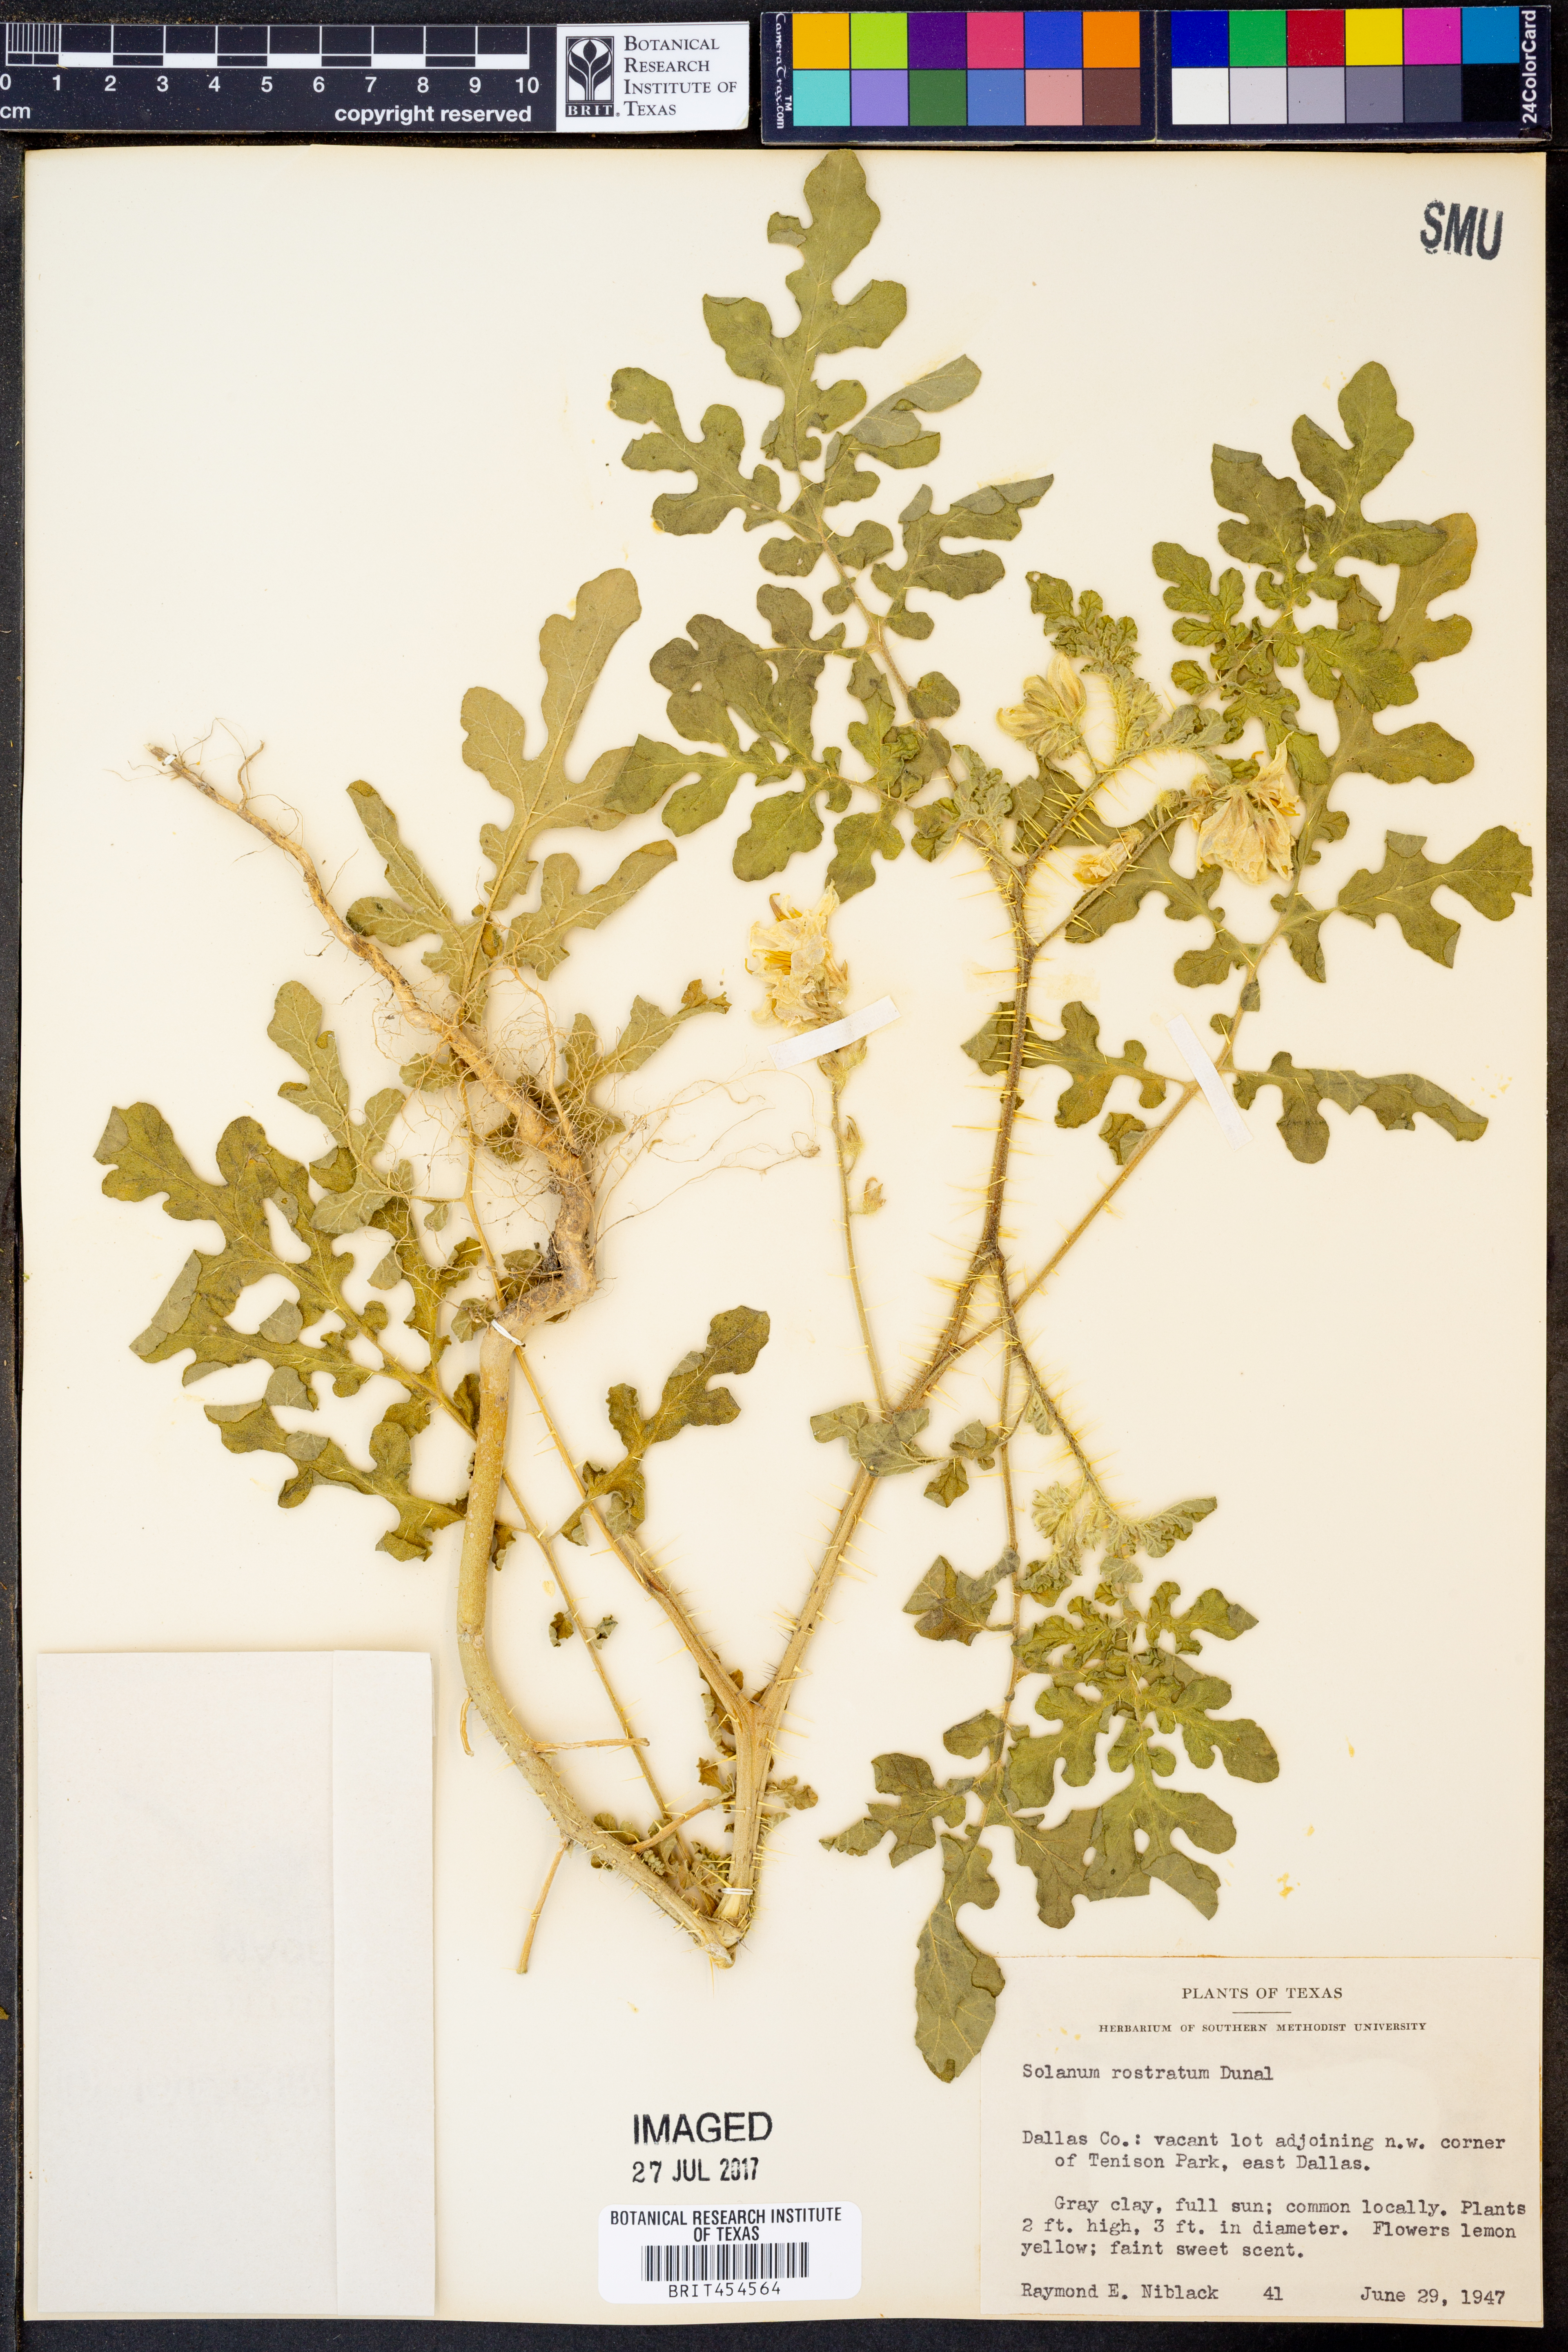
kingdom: Plantae
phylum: Tracheophyta
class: Magnoliopsida
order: Solanales
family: Solanaceae
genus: Solanum
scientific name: Solanum angustifolium
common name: Buffalobur nightshade
